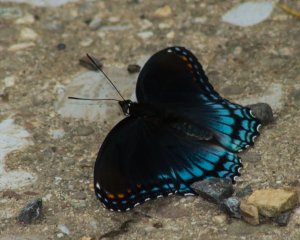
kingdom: Animalia
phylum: Arthropoda
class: Insecta
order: Lepidoptera
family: Nymphalidae
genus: Limenitis
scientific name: Limenitis astyanax
